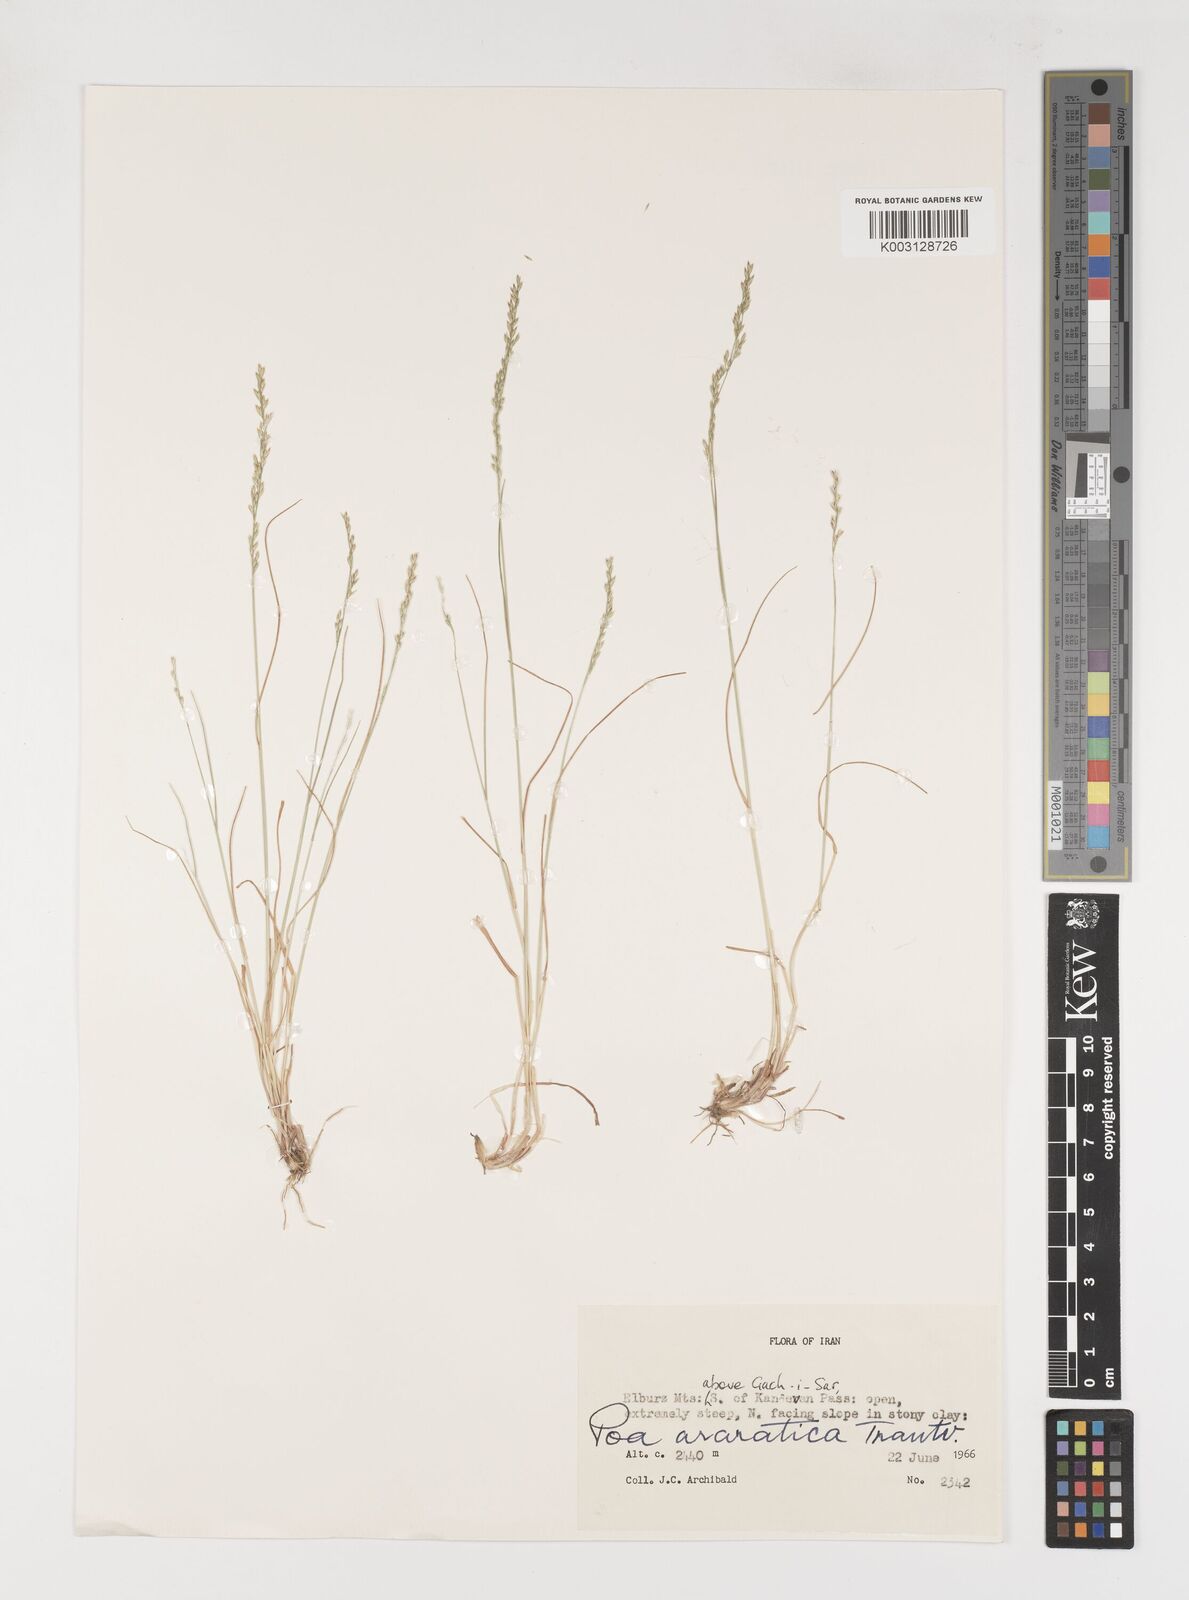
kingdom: Plantae
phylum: Tracheophyta
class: Liliopsida
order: Poales
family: Poaceae
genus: Poa
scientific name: Poa araratica
